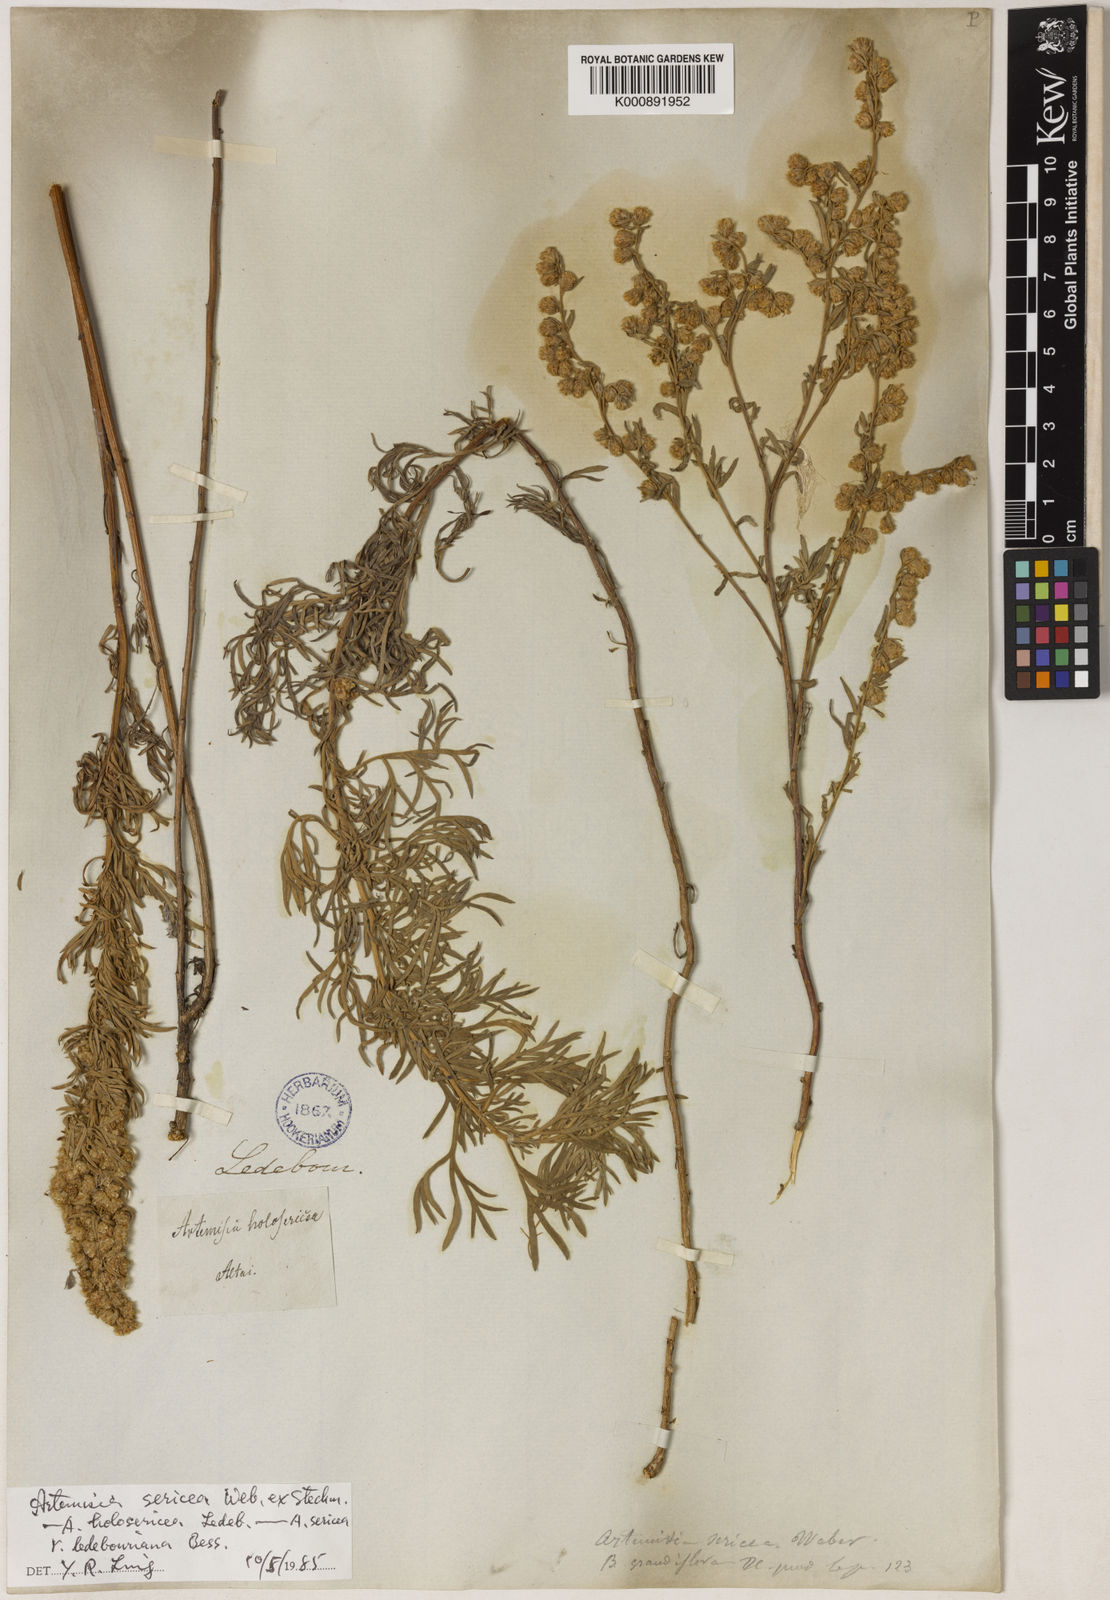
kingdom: Plantae
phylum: Tracheophyta
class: Magnoliopsida
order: Asterales
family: Asteraceae
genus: Artemisia
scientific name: Artemisia sericea
